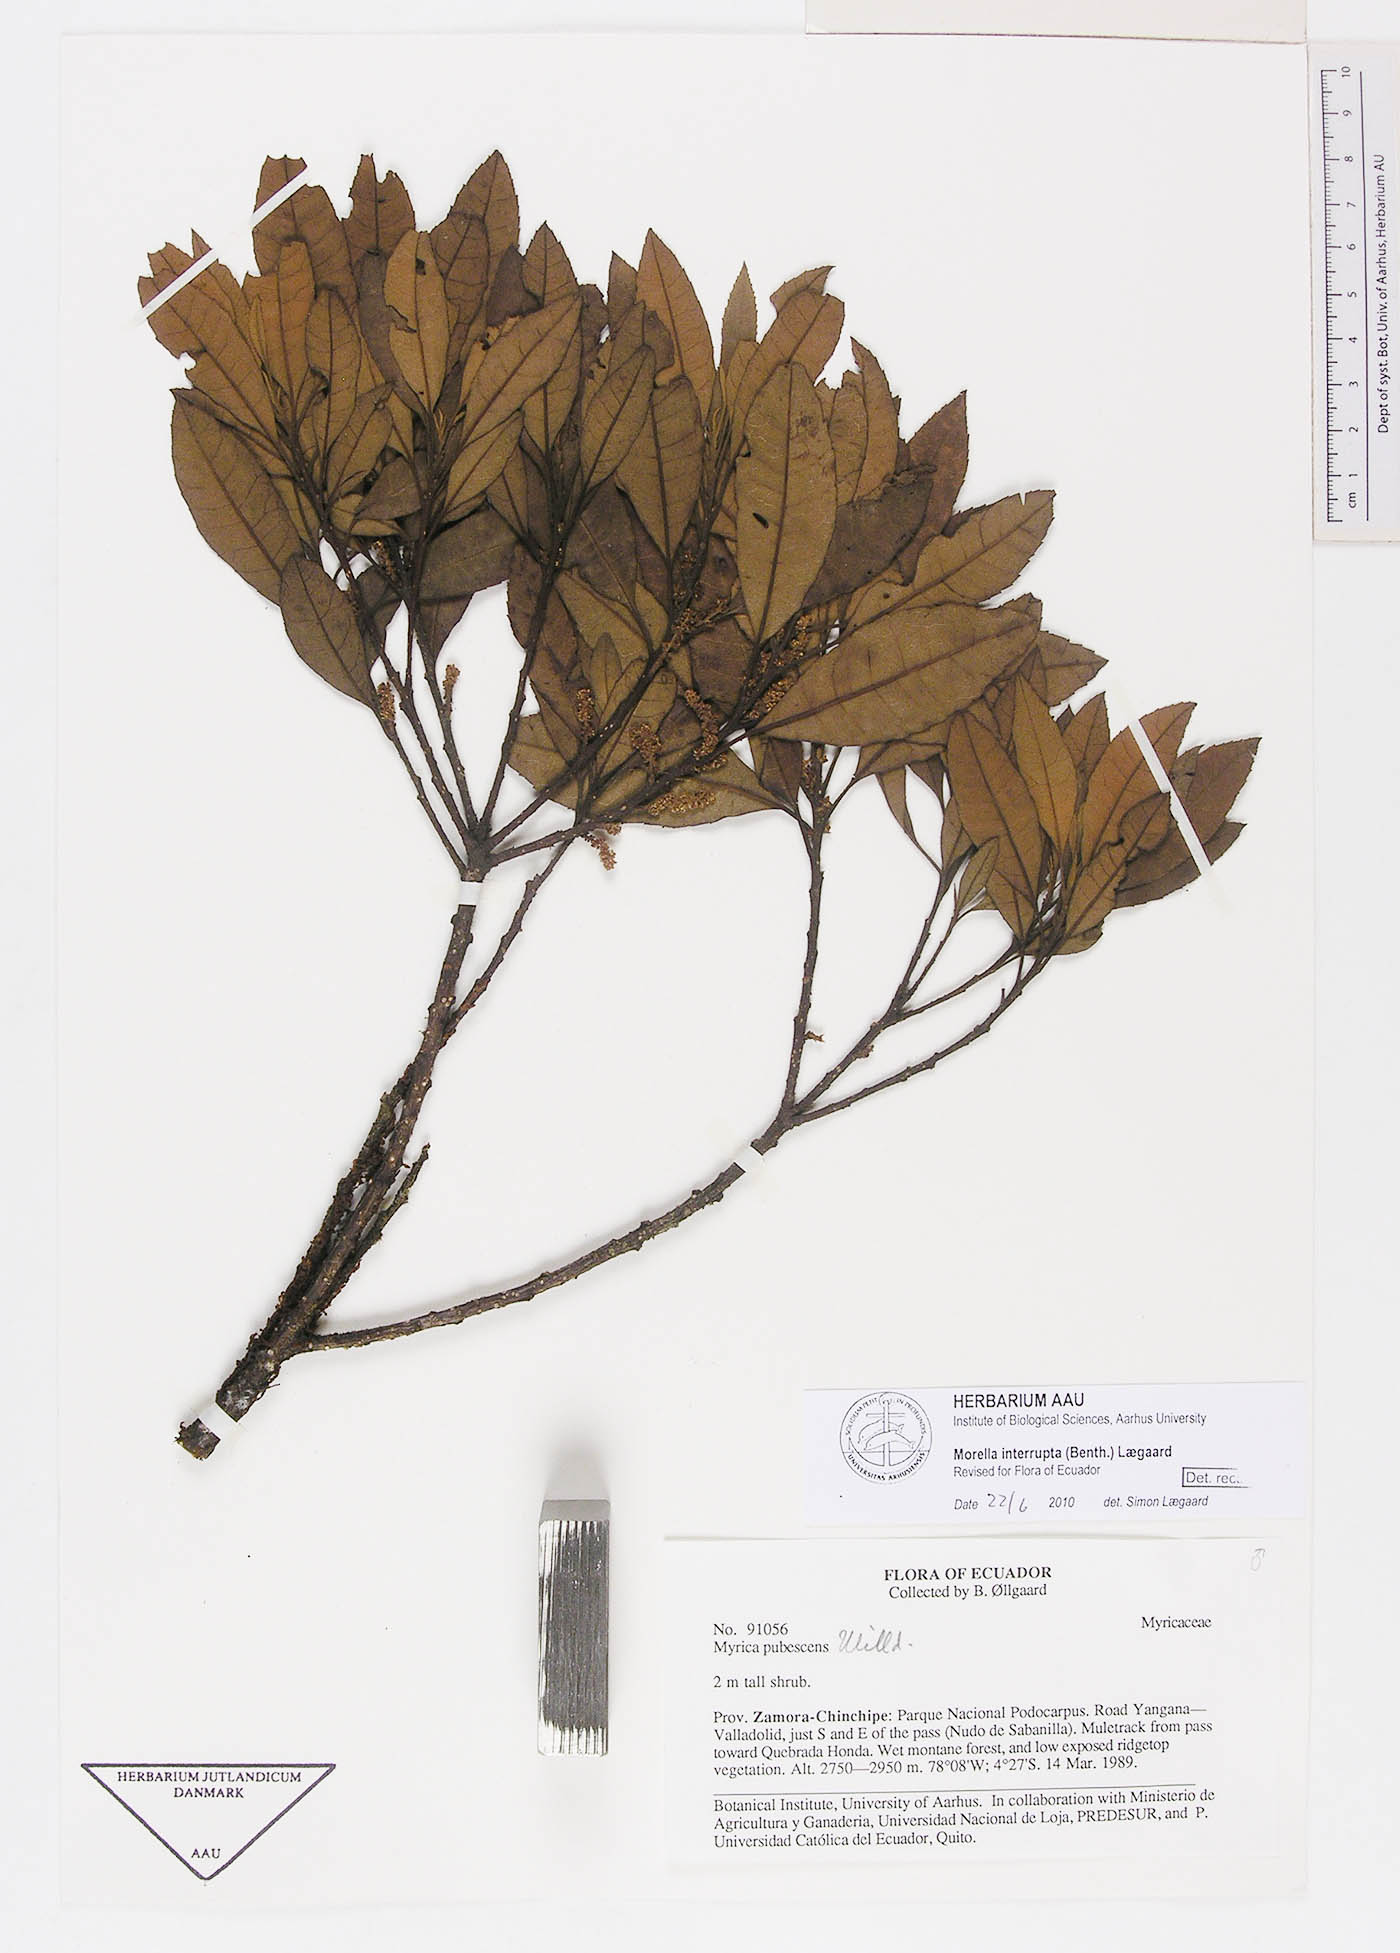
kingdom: Plantae
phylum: Tracheophyta
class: Magnoliopsida
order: Fagales
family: Myricaceae
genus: Morella
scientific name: Morella interrupta
